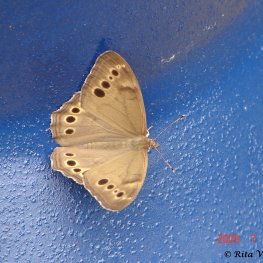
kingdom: Animalia
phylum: Arthropoda
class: Insecta
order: Lepidoptera
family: Nymphalidae
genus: Lethe
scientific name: Lethe anthedon
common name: Northern Pearly-Eye
